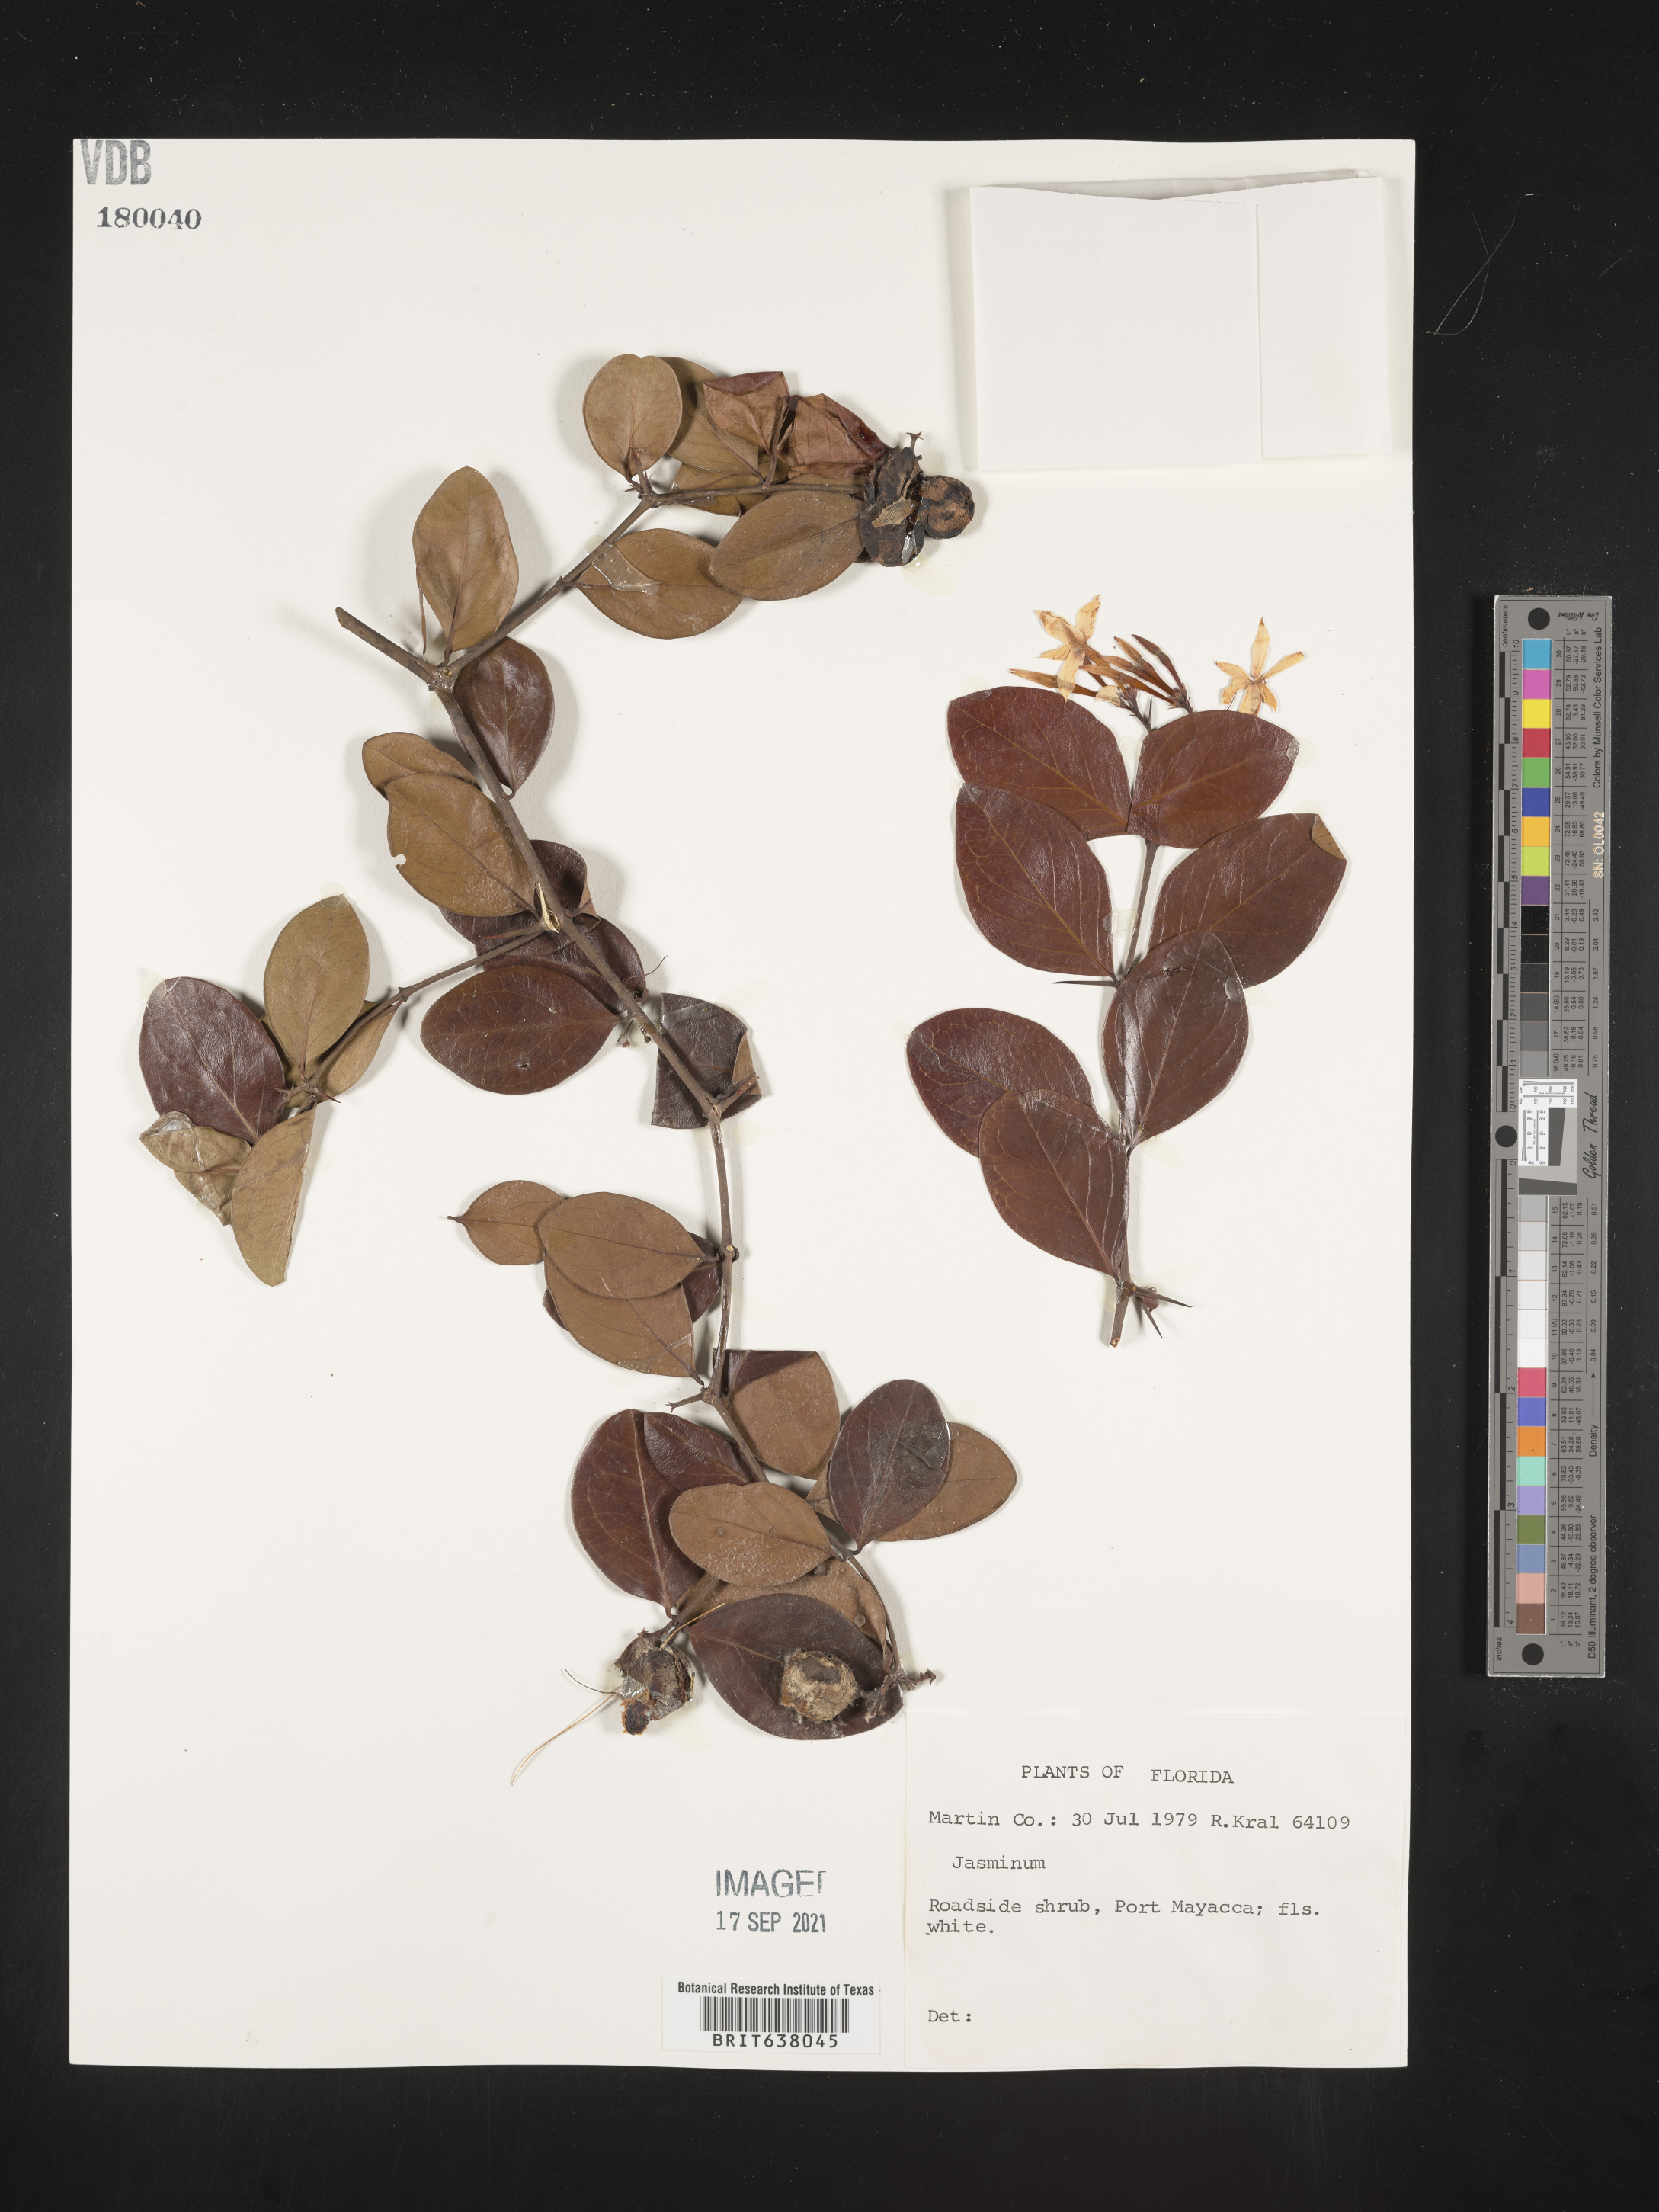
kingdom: Plantae
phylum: Tracheophyta
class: Magnoliopsida
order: Lamiales
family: Oleaceae
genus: Jasminum
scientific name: Jasminum
